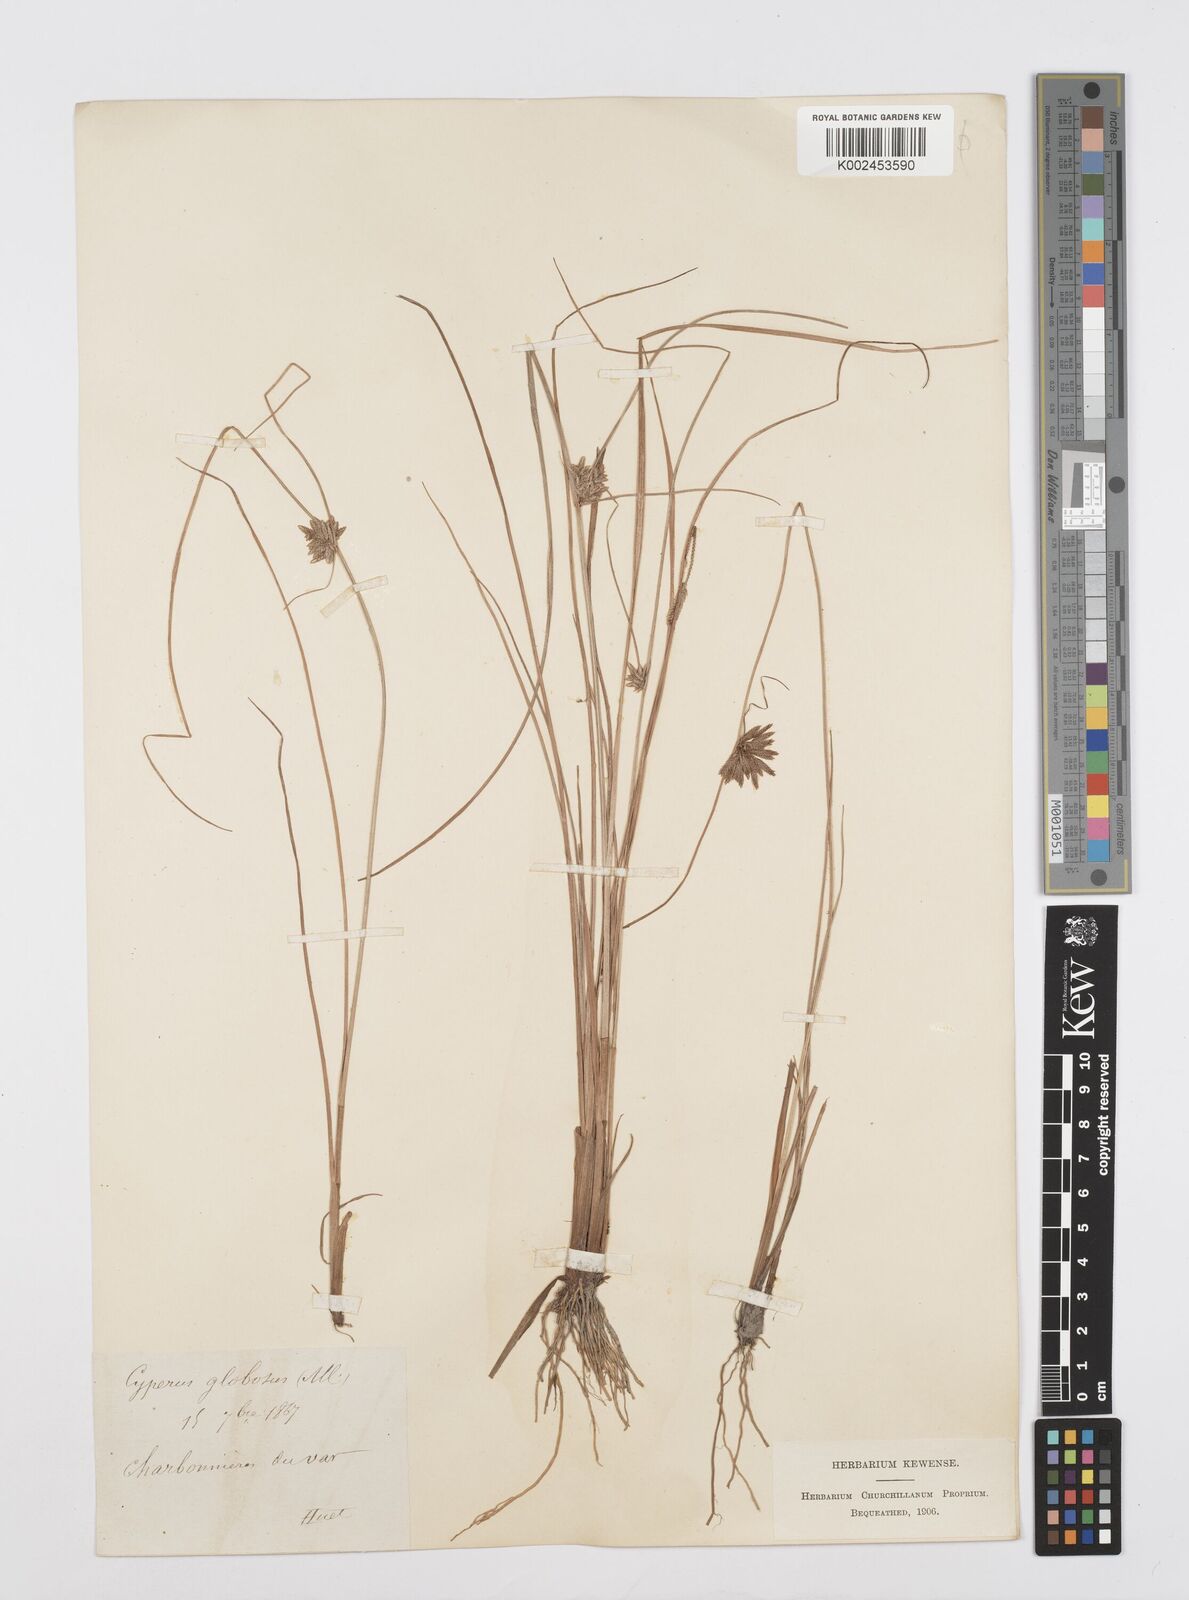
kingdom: Plantae
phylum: Tracheophyta
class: Liliopsida
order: Poales
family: Cyperaceae
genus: Cyperus
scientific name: Cyperus flavidus
